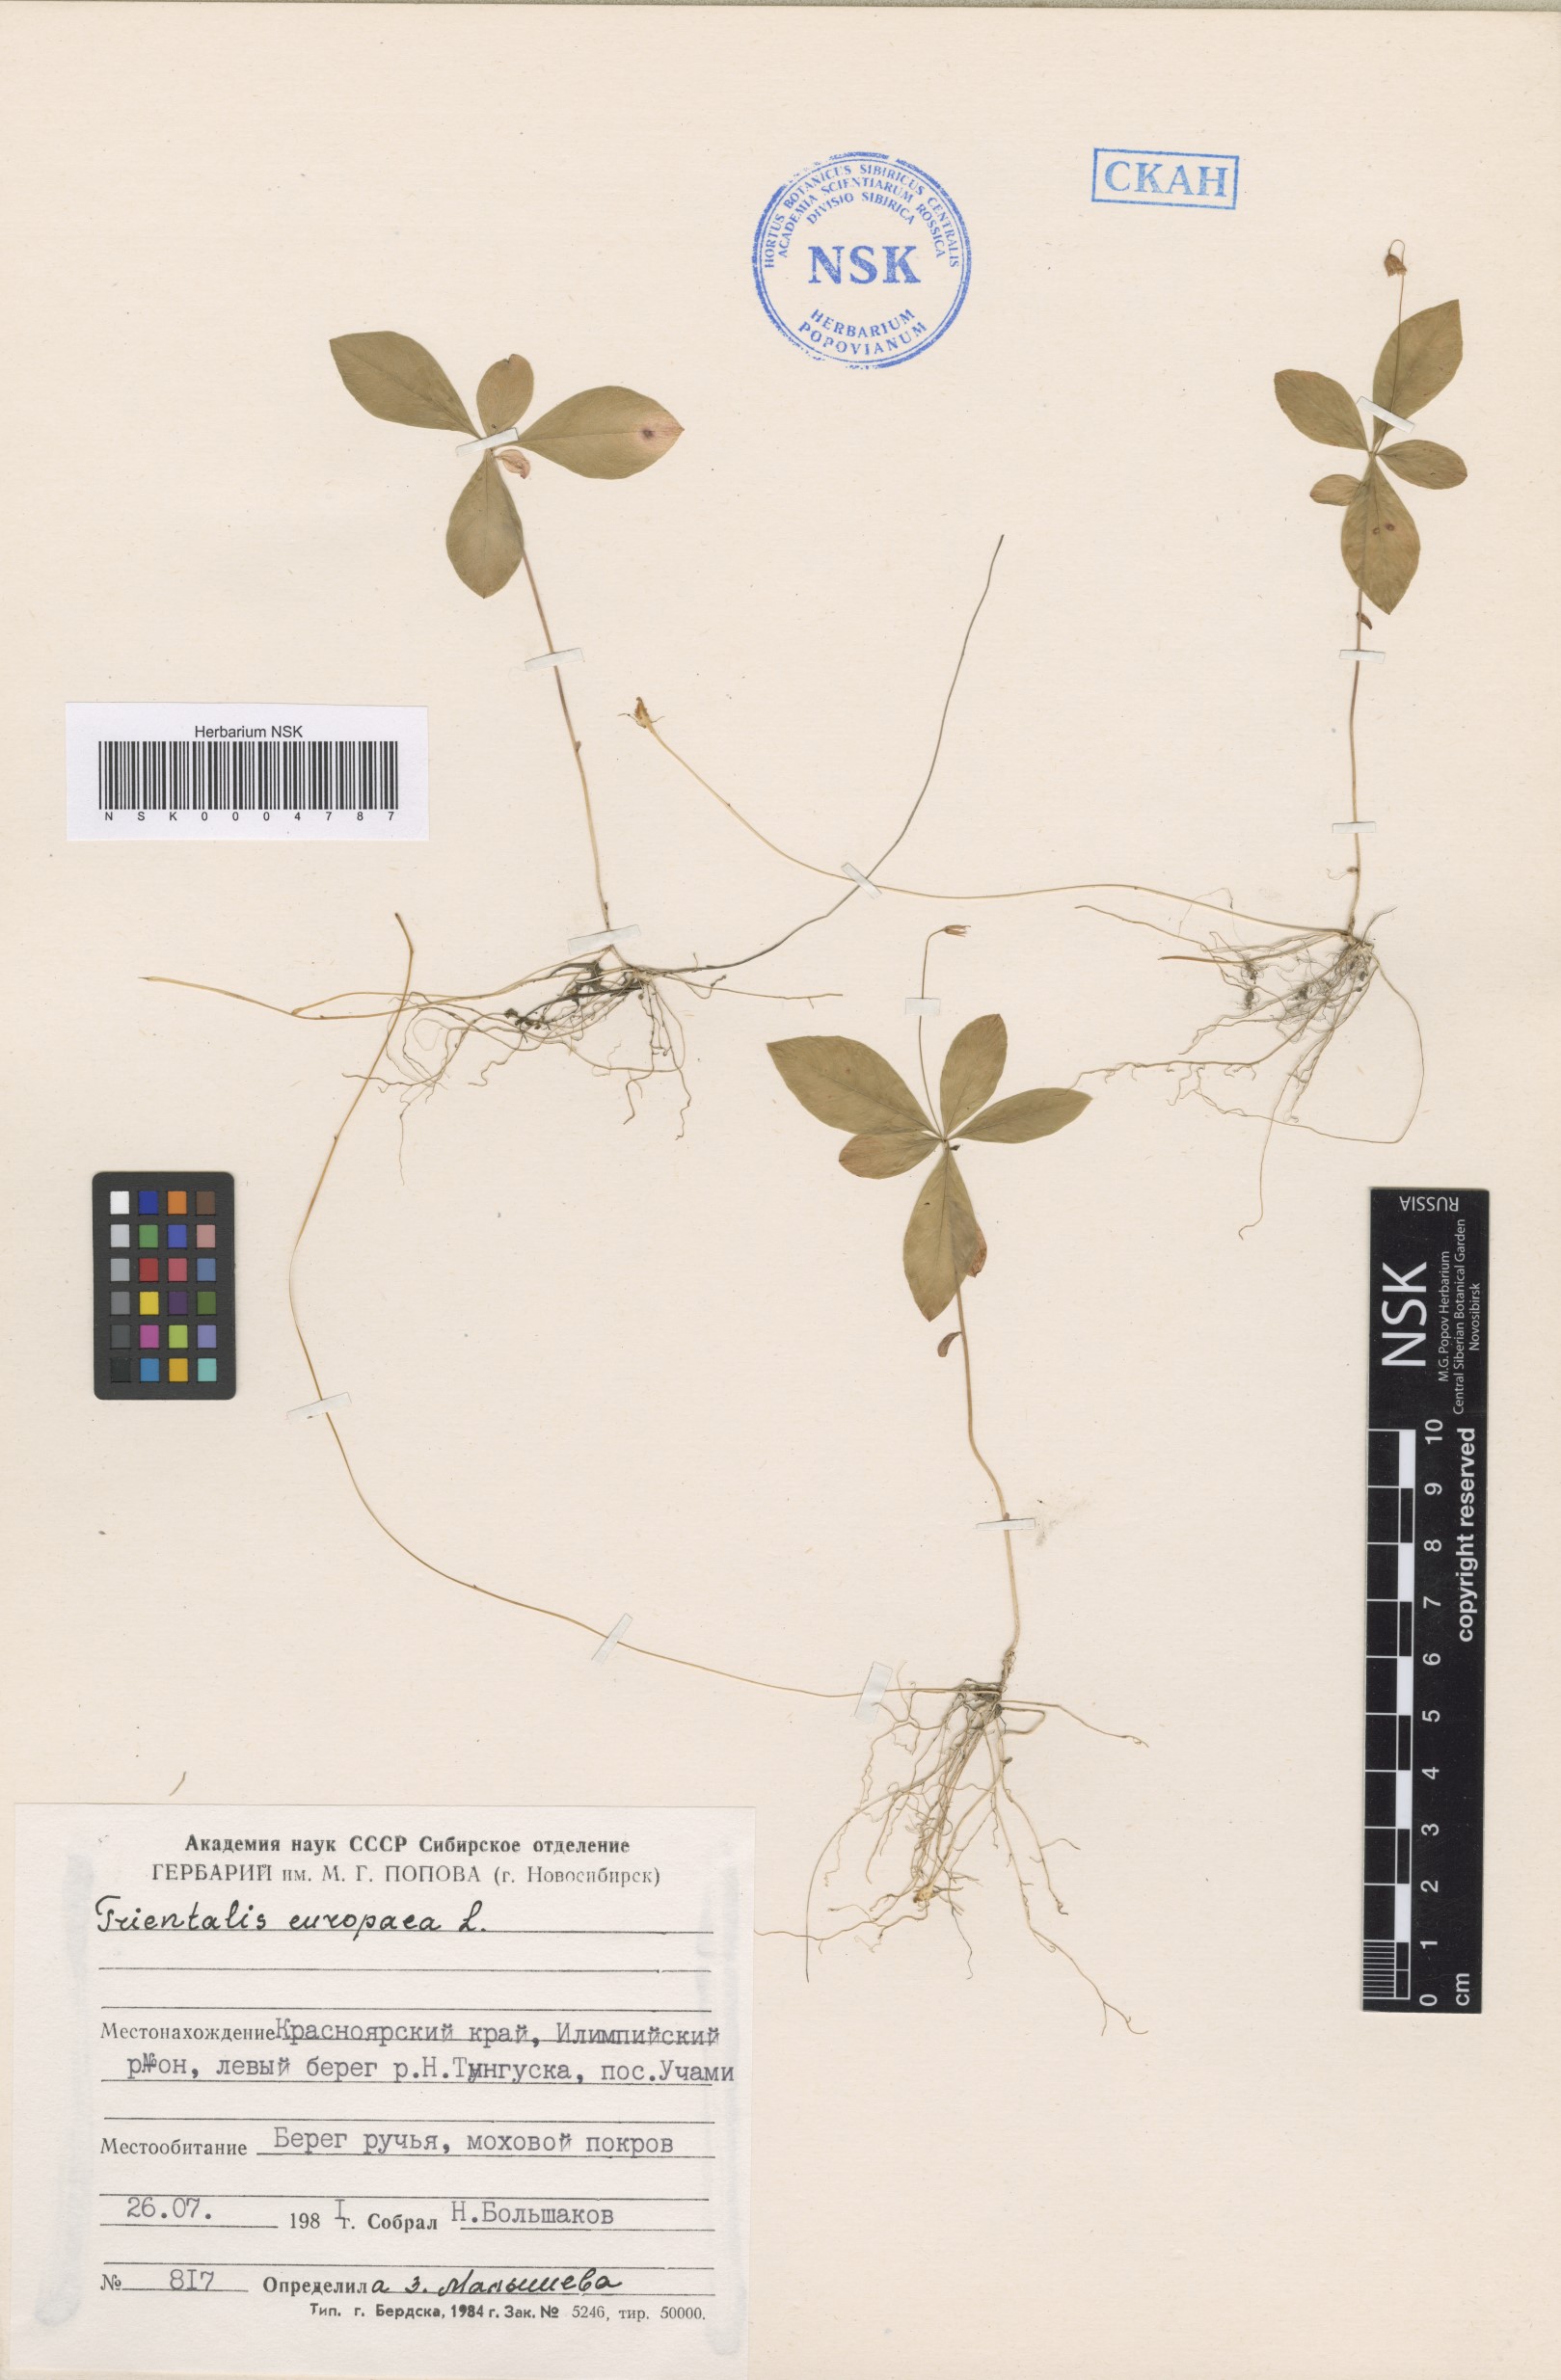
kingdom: Plantae
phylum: Tracheophyta
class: Magnoliopsida
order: Ericales
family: Primulaceae
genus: Lysimachia
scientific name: Lysimachia europaea
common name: Arctic starflower
